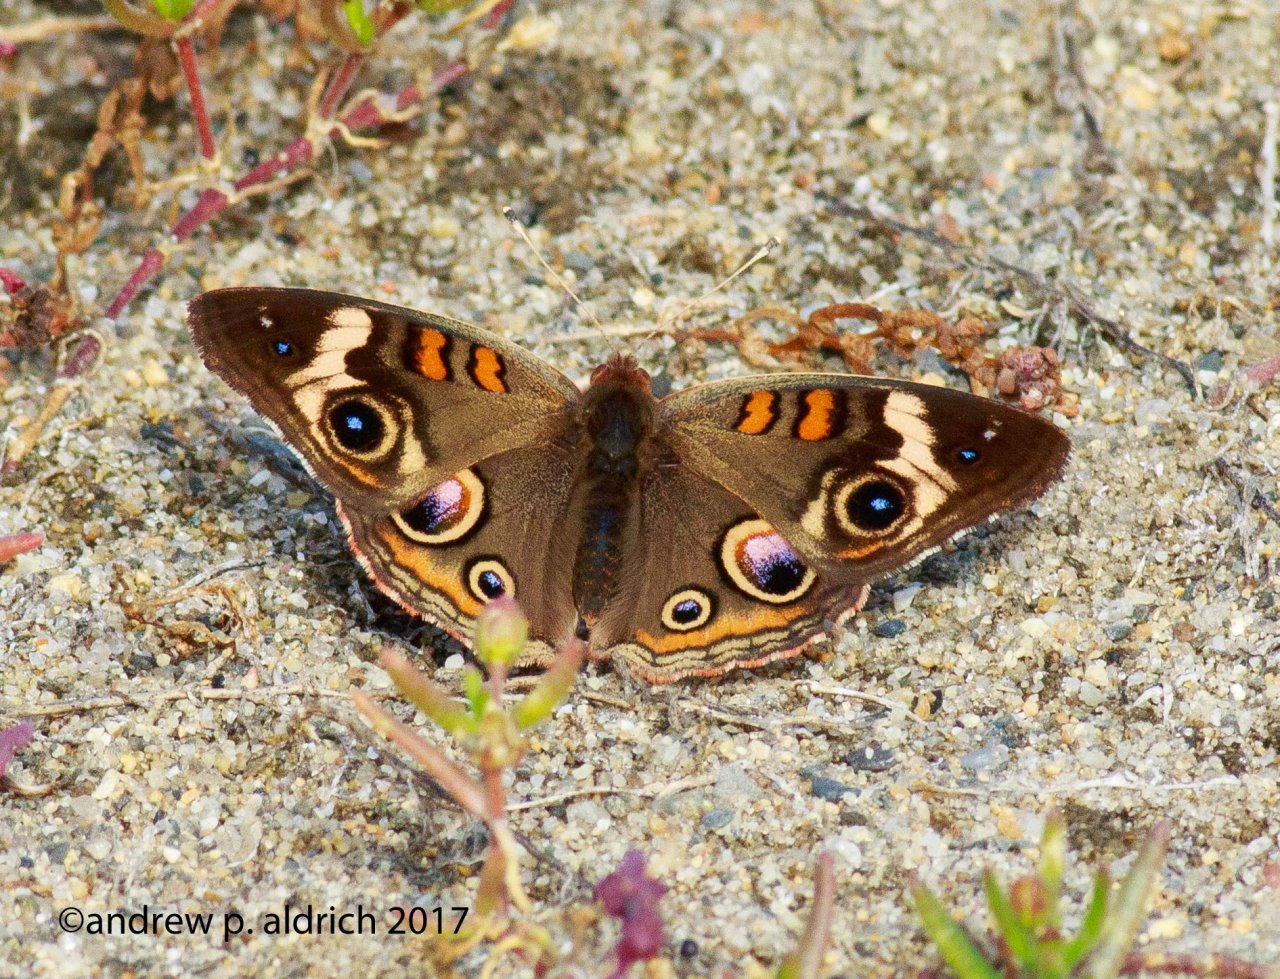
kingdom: Animalia
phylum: Arthropoda
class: Insecta
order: Lepidoptera
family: Nymphalidae
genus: Junonia
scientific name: Junonia coenia
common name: Common Buckeye
